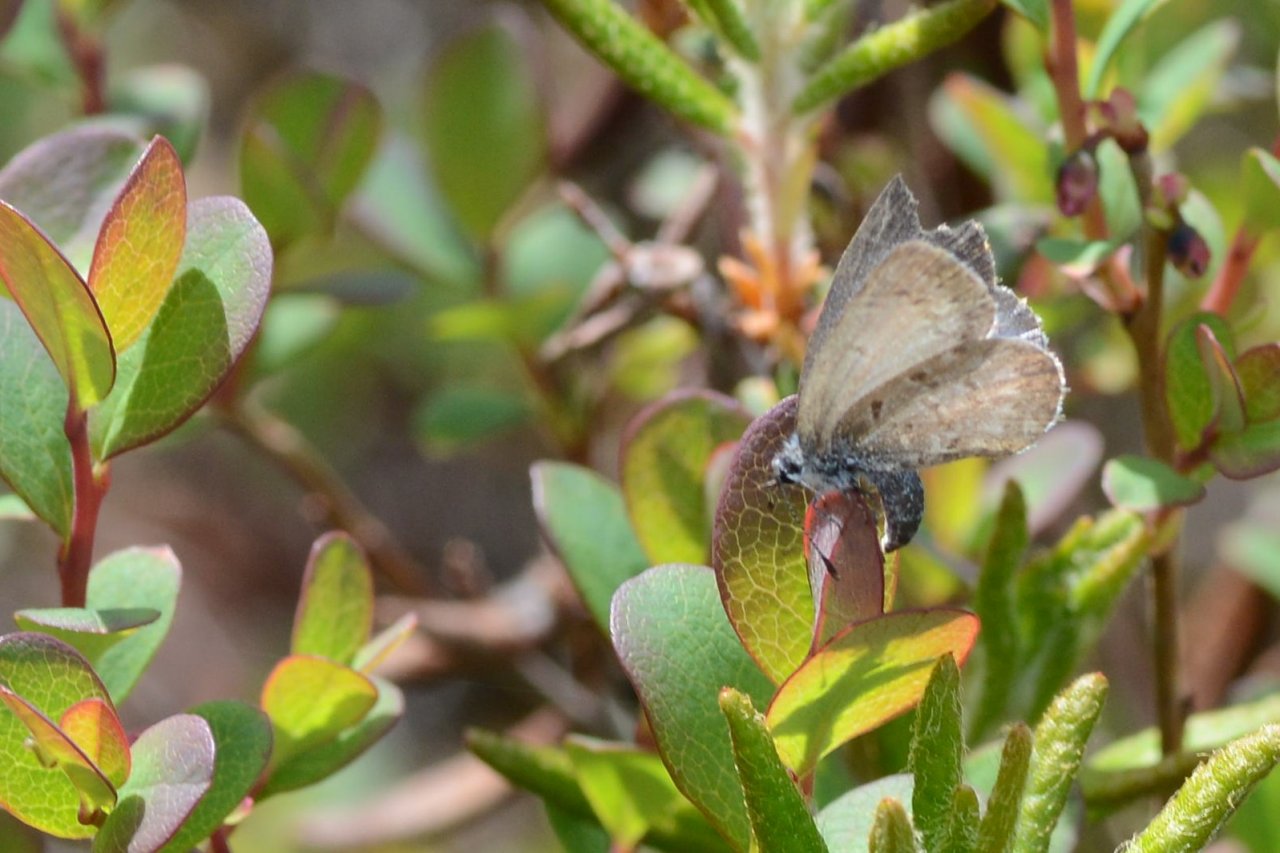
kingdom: Animalia
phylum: Arthropoda
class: Insecta
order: Lepidoptera
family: Lycaenidae
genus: Celastrina
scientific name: Celastrina lucia
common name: Northern Spring Azure
